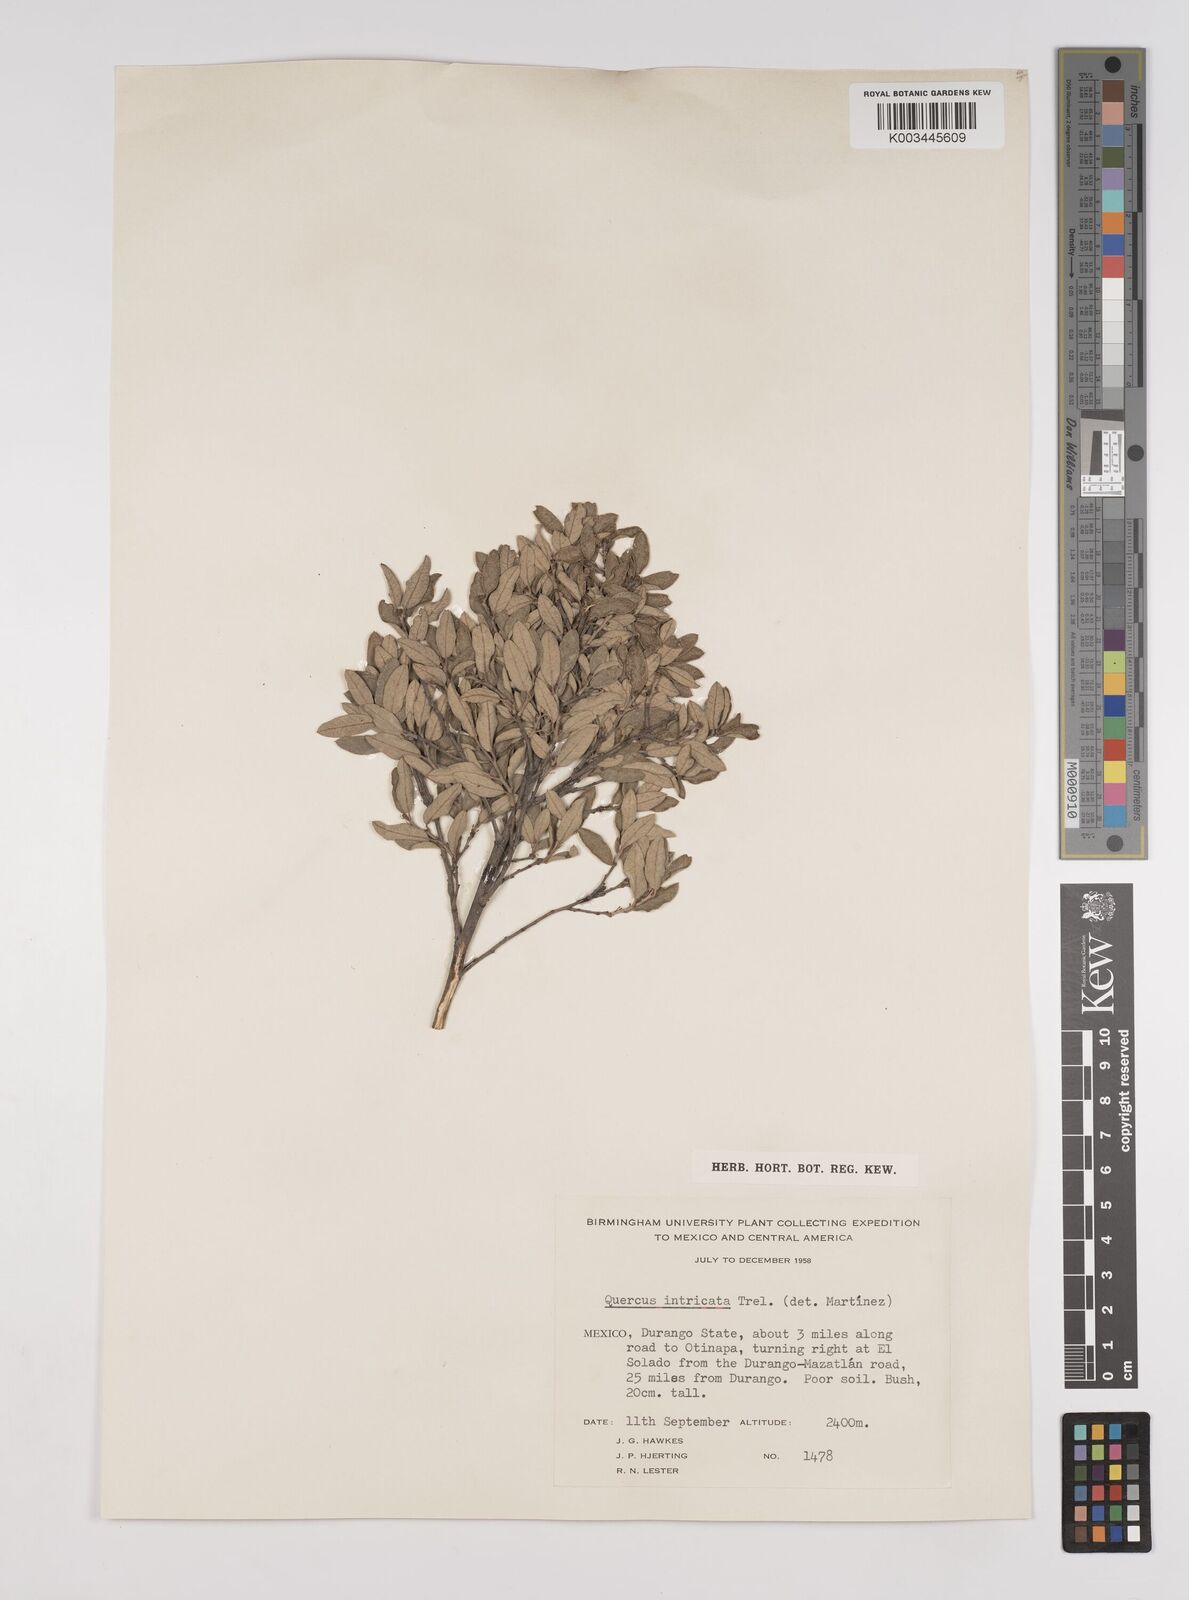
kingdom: Plantae
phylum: Tracheophyta
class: Magnoliopsida
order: Fagales
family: Fagaceae
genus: Quercus
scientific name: Quercus intricata
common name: Dwarf oak
